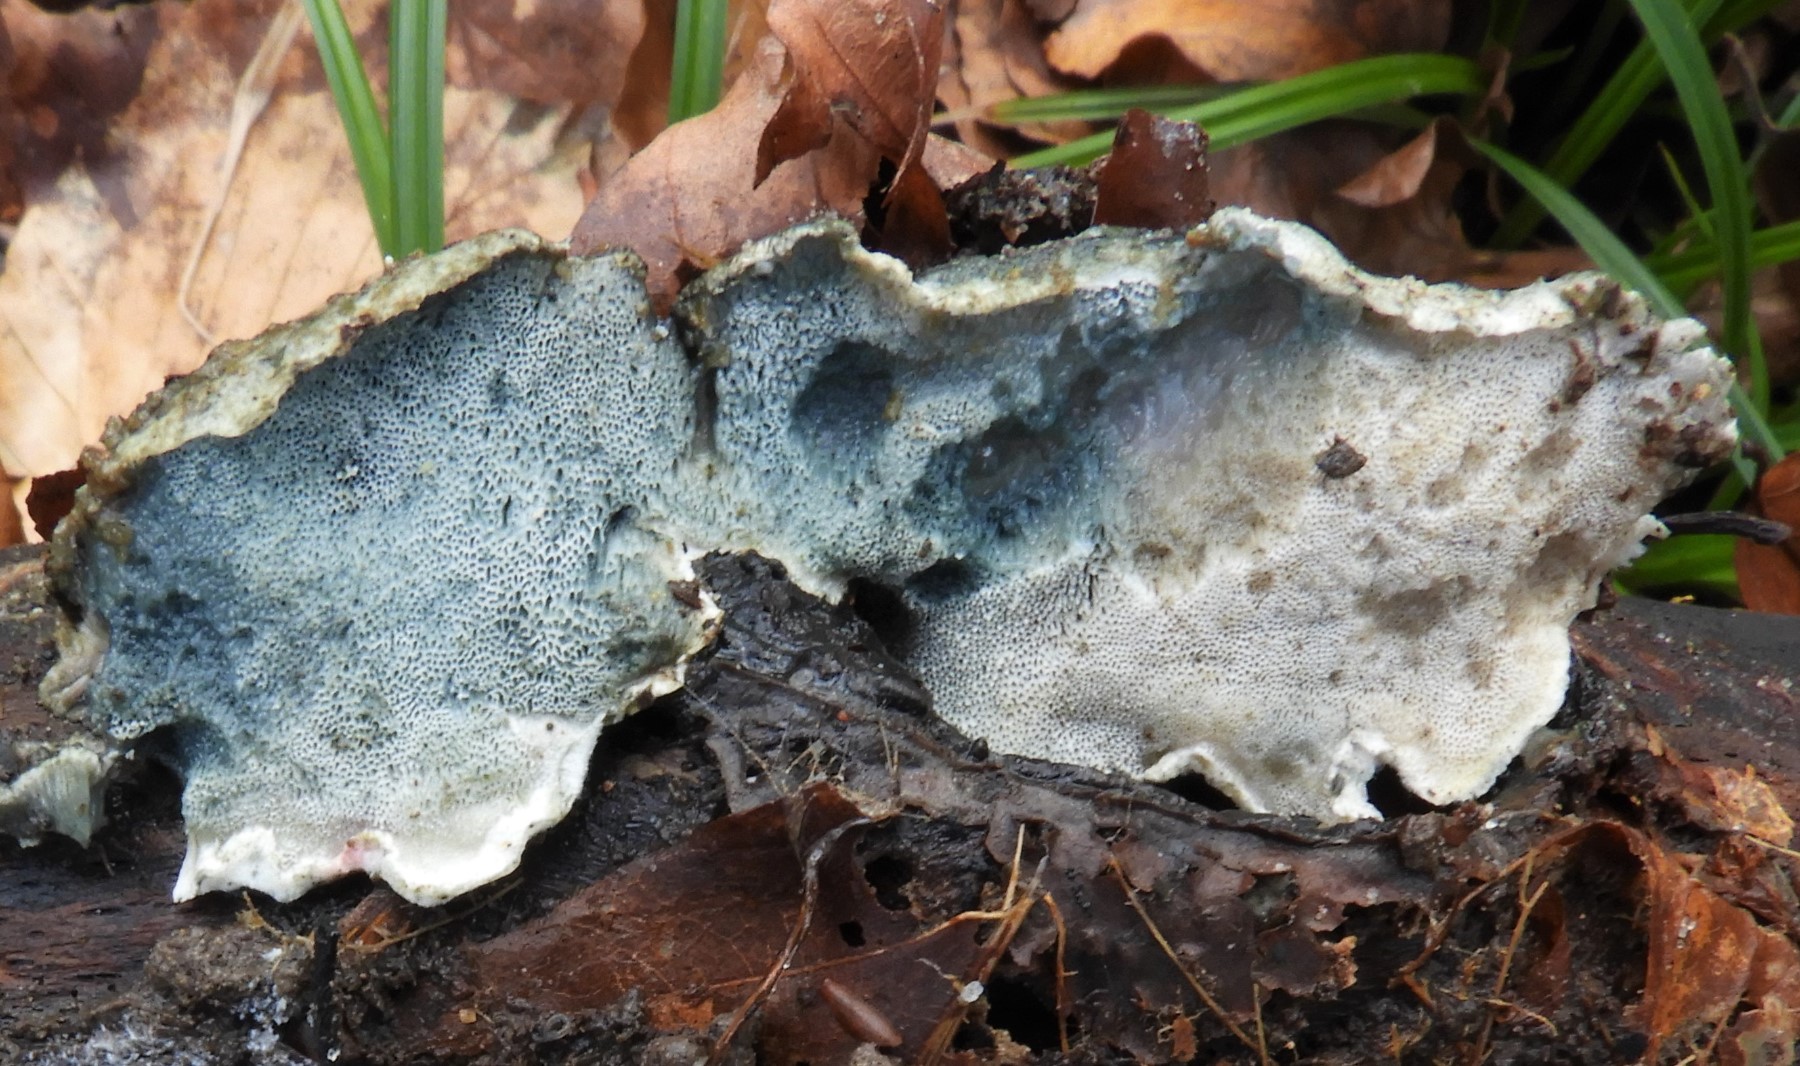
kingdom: Fungi
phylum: Basidiomycota
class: Agaricomycetes
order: Polyporales
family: Polyporaceae
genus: Cyanosporus
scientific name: Cyanosporus caesius
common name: blålig kødporesvamp
